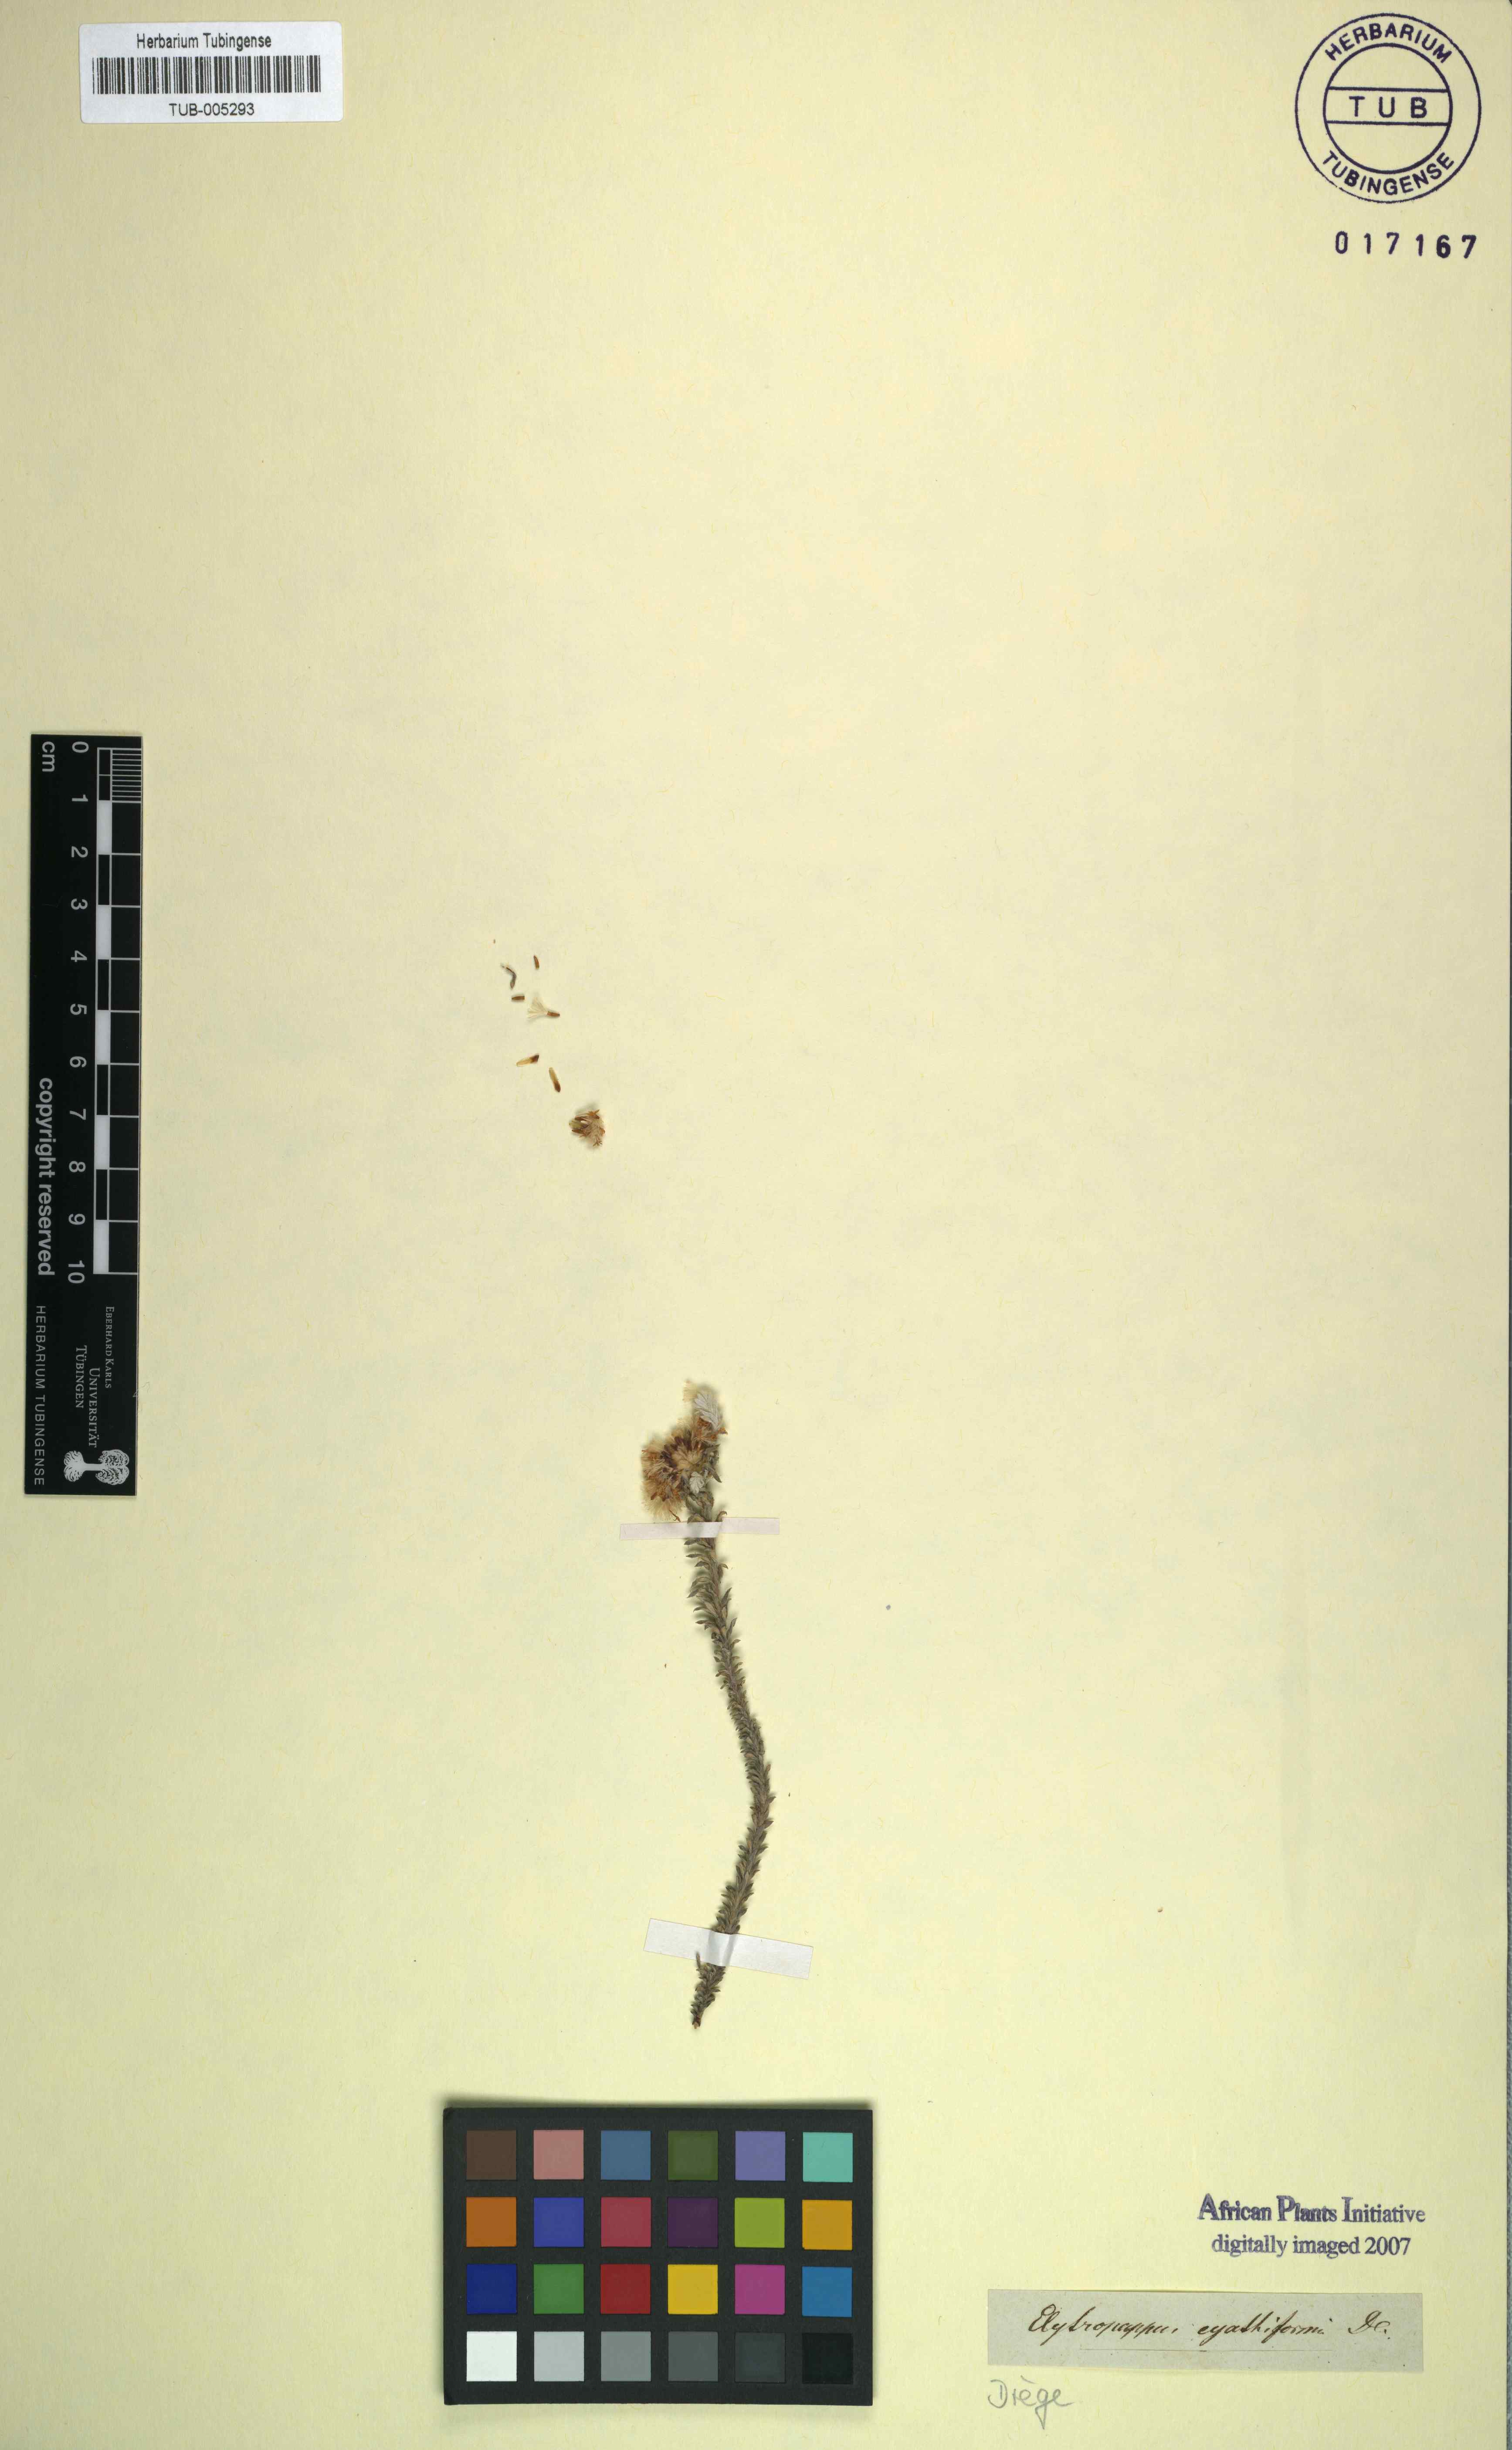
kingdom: Plantae
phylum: Tracheophyta
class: Magnoliopsida
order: Asterales
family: Asteraceae
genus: Elytropappus
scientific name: Elytropappus hispidus
